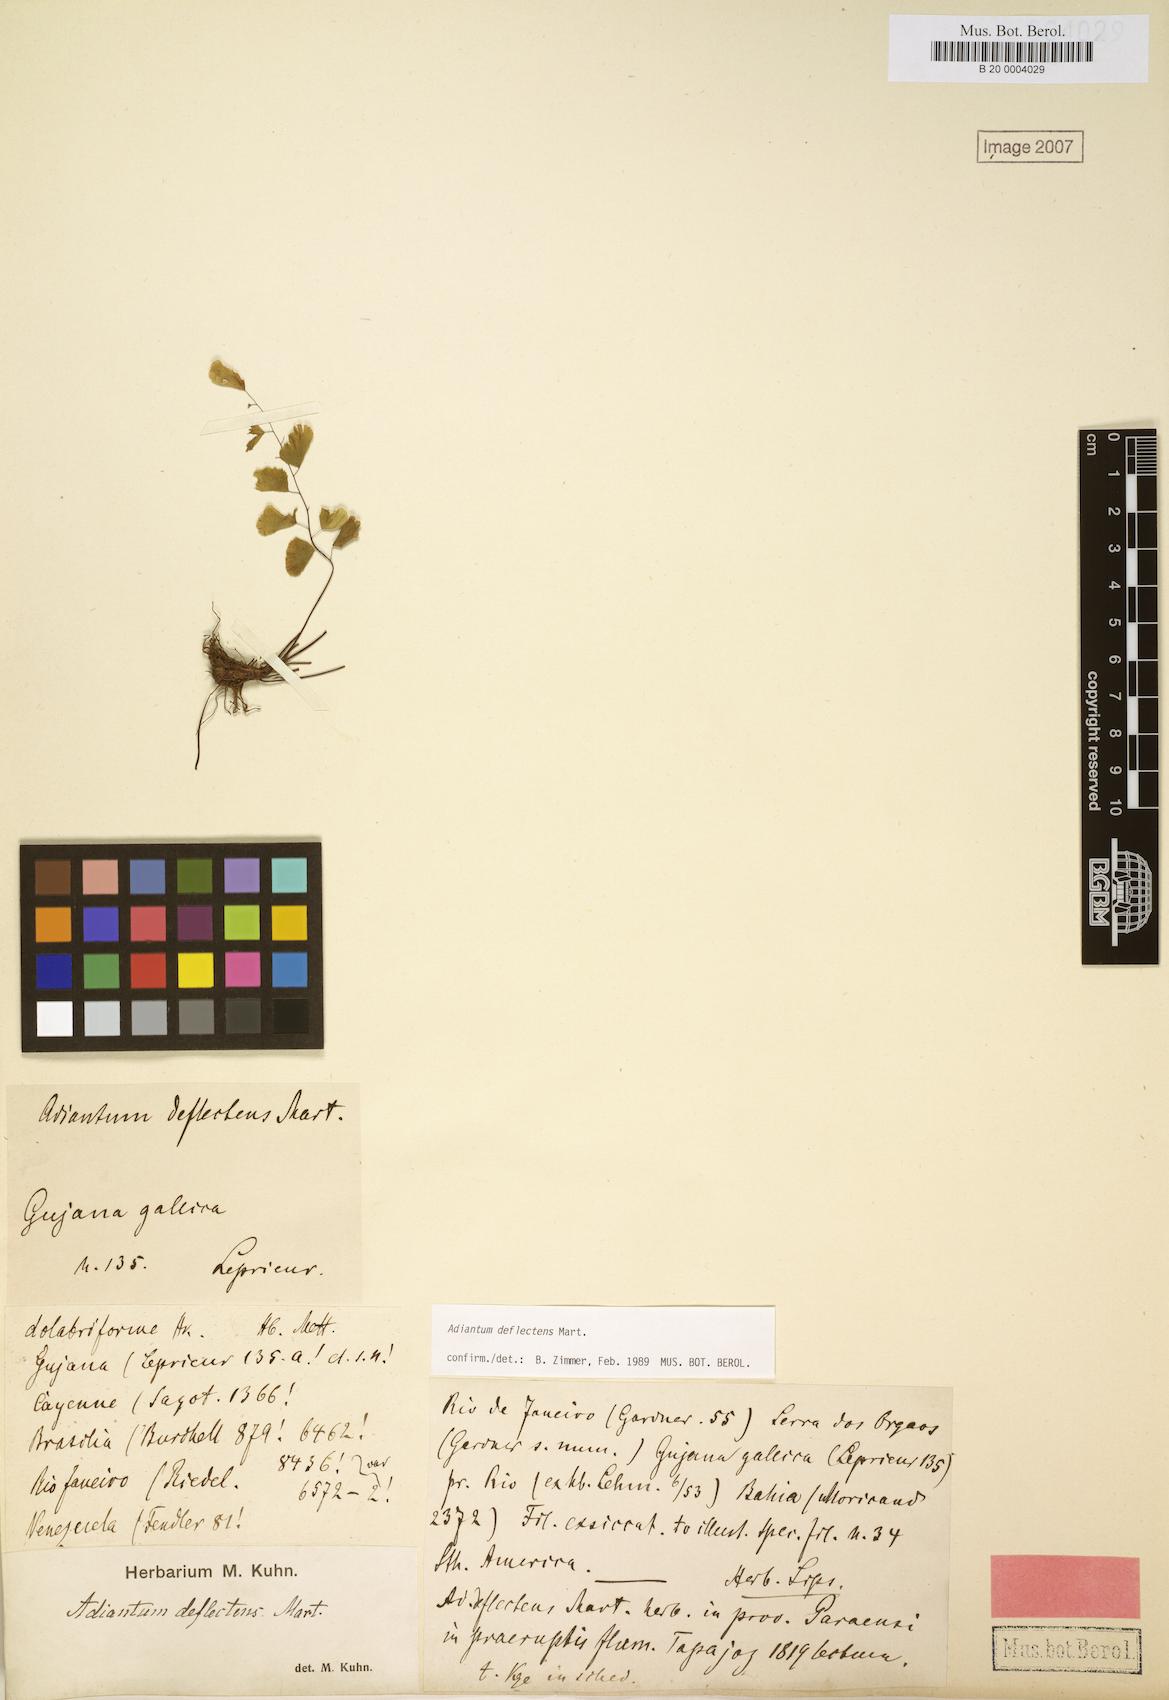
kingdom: Plantae
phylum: Tracheophyta
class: Polypodiopsida
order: Polypodiales
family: Pteridaceae
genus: Adiantum
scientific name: Adiantum deflectens
